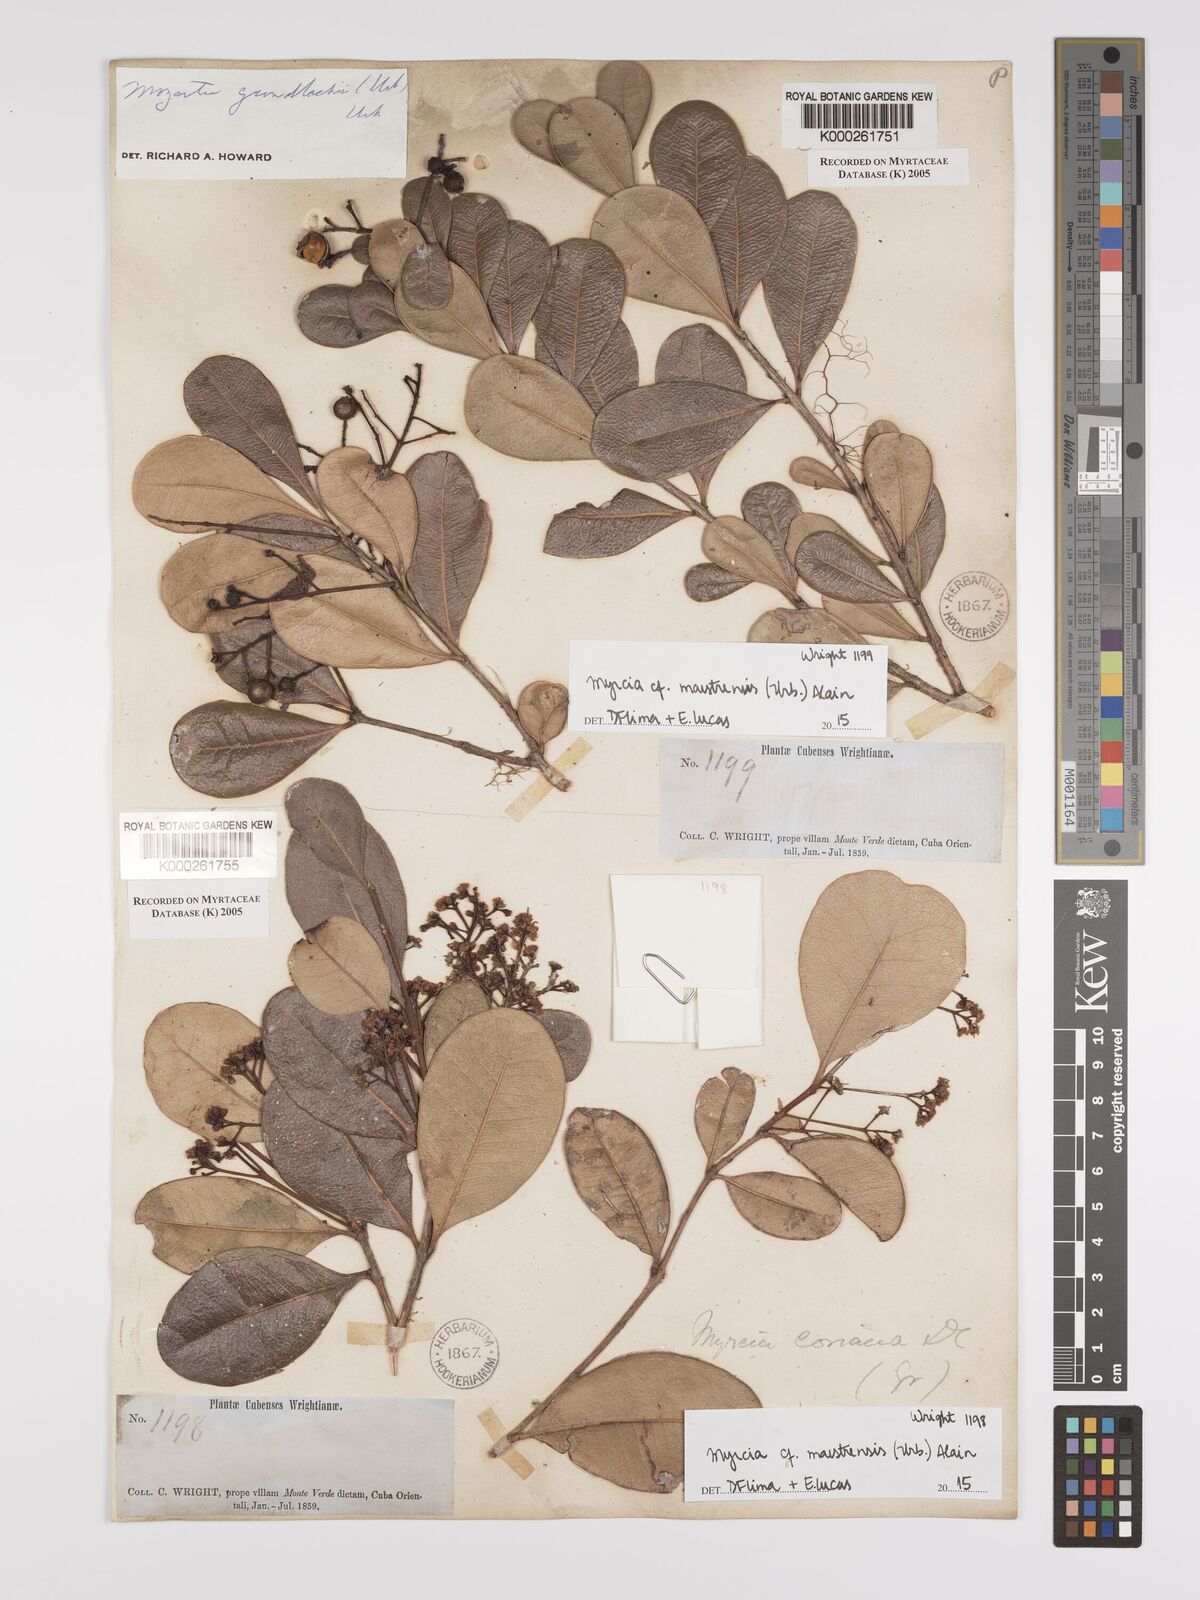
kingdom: Plantae
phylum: Tracheophyta
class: Magnoliopsida
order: Myrtales
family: Myrtaceae
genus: Myrcia
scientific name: Myrcia guianensis
